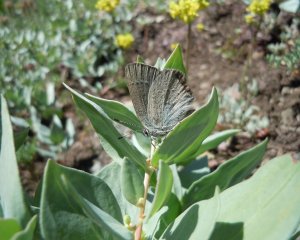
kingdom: Animalia
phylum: Arthropoda
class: Insecta
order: Lepidoptera
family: Lycaenidae
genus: Satyrium
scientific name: Satyrium fuliginosa
